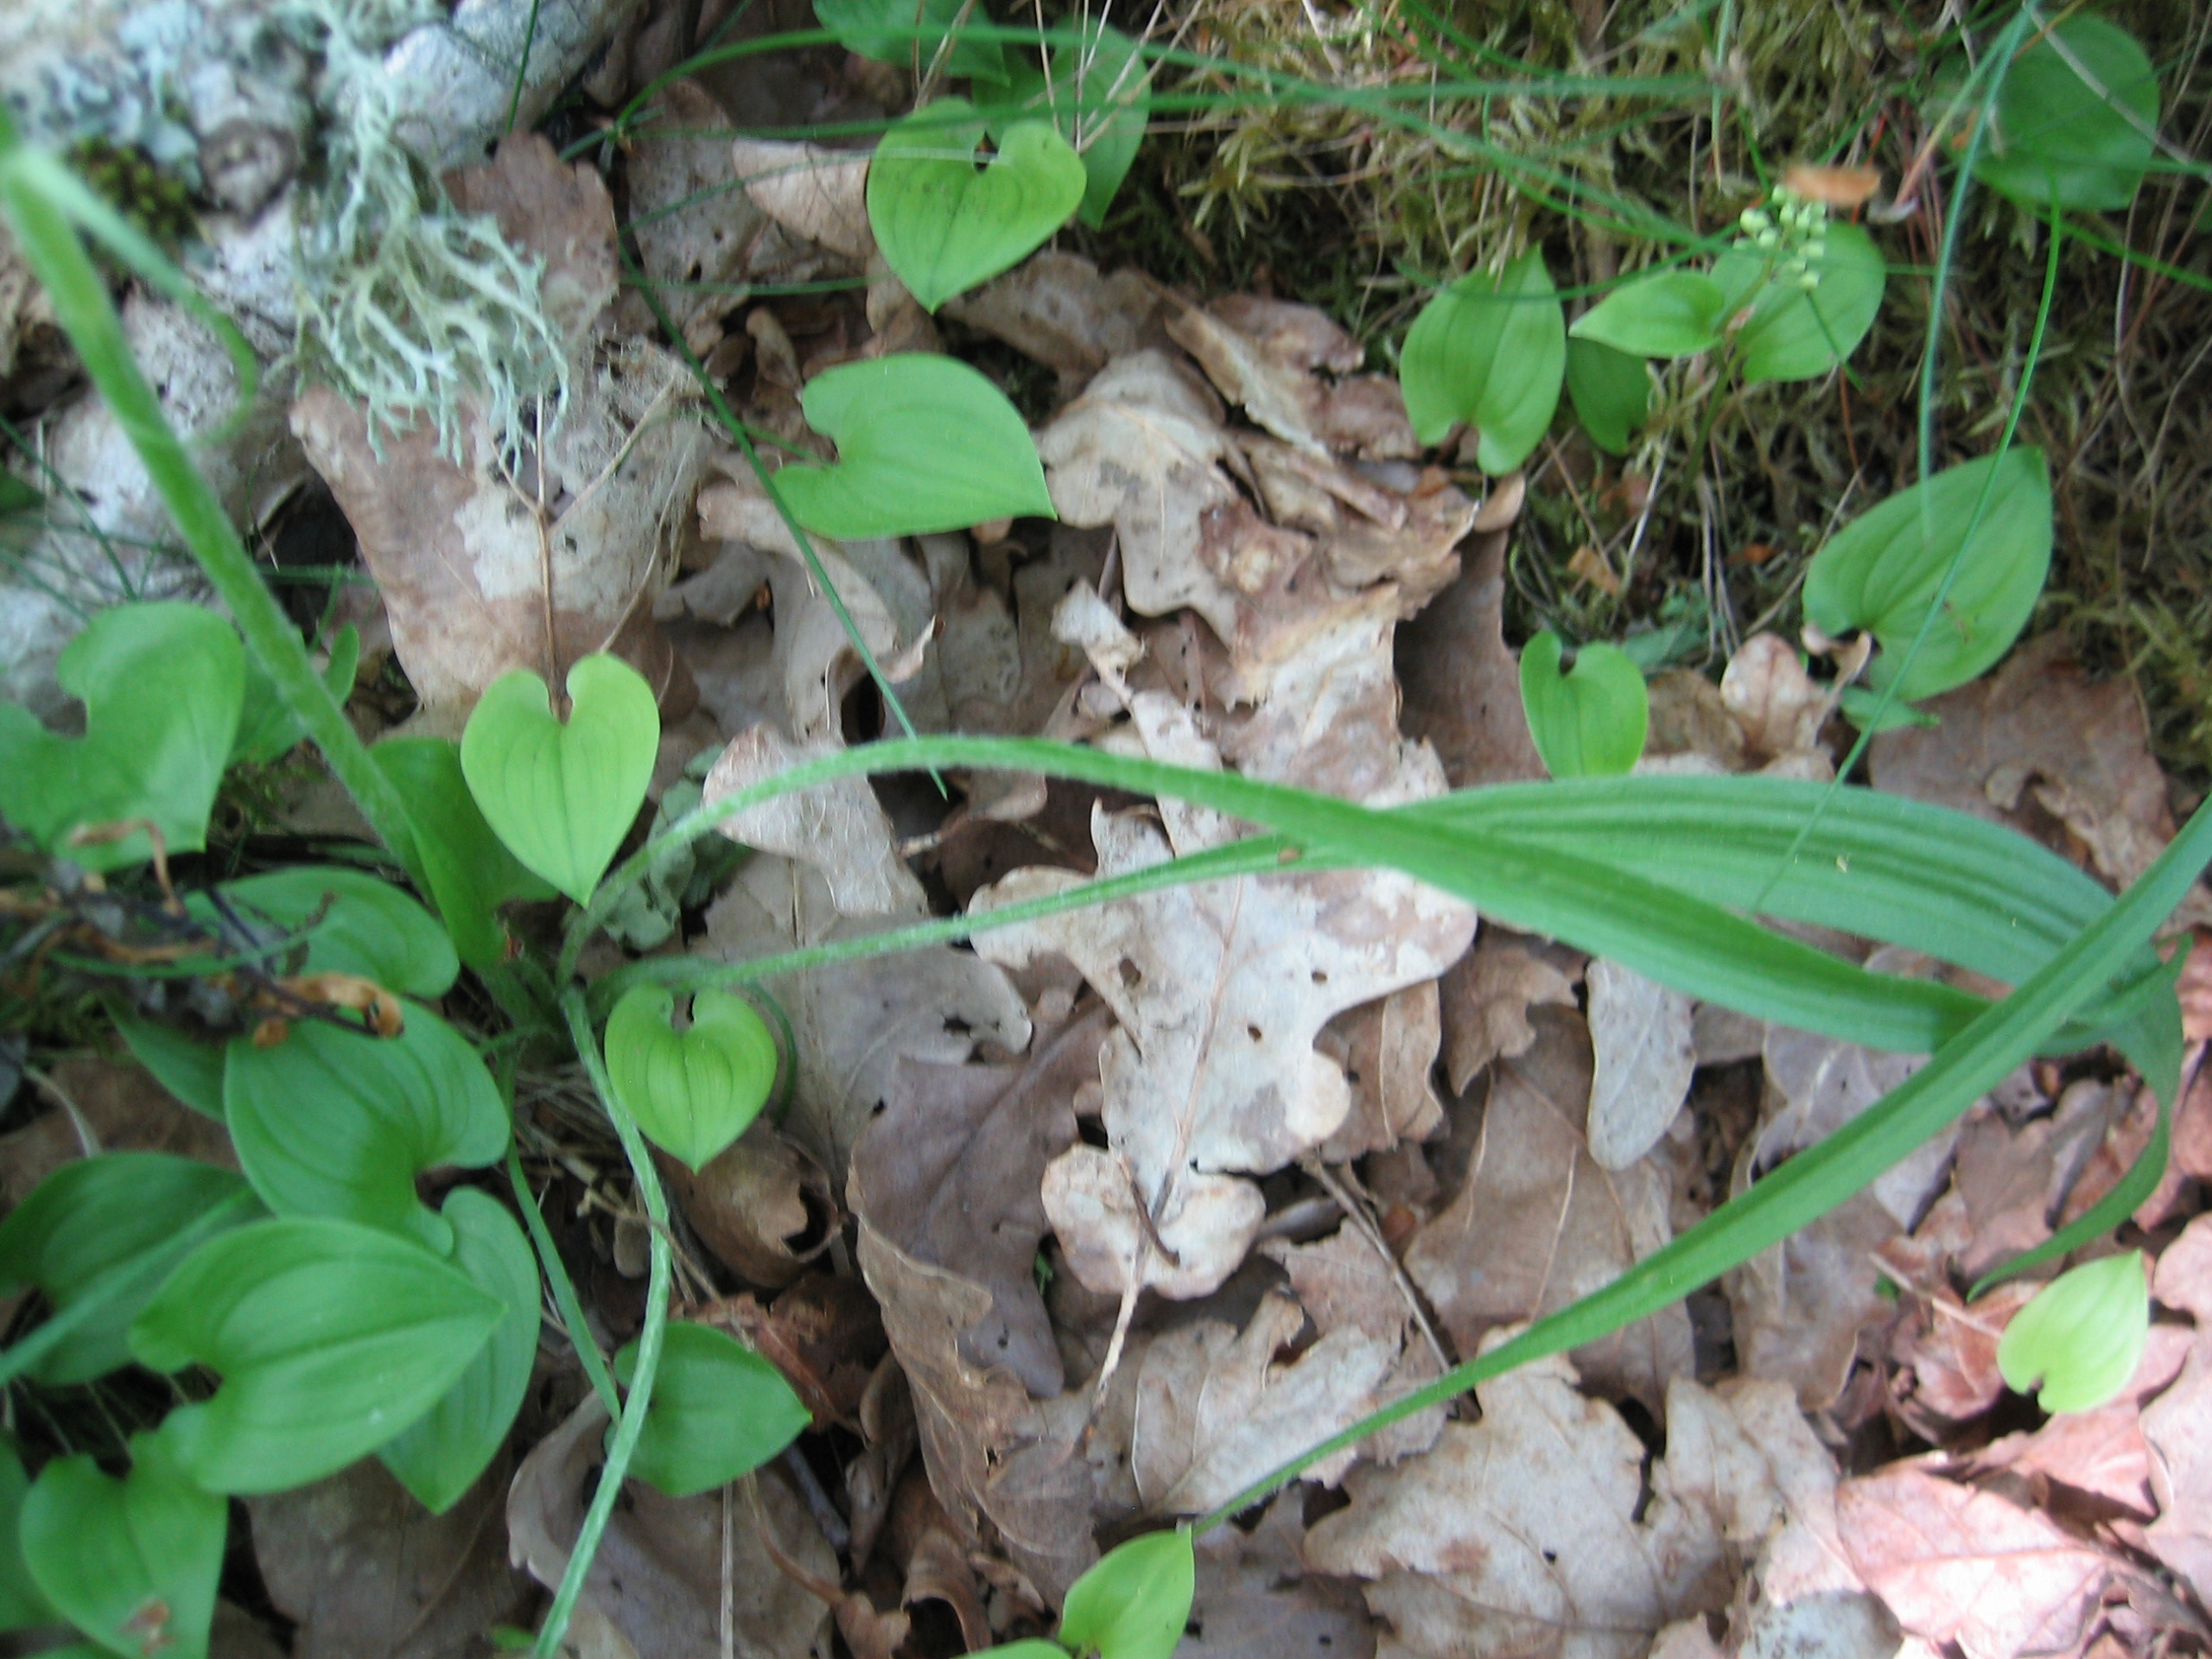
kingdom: Plantae
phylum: Tracheophyta
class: Magnoliopsida
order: Asterales
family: Asteraceae
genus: Scorzonera
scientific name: Scorzonera humilis
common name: Lav skorsoner
